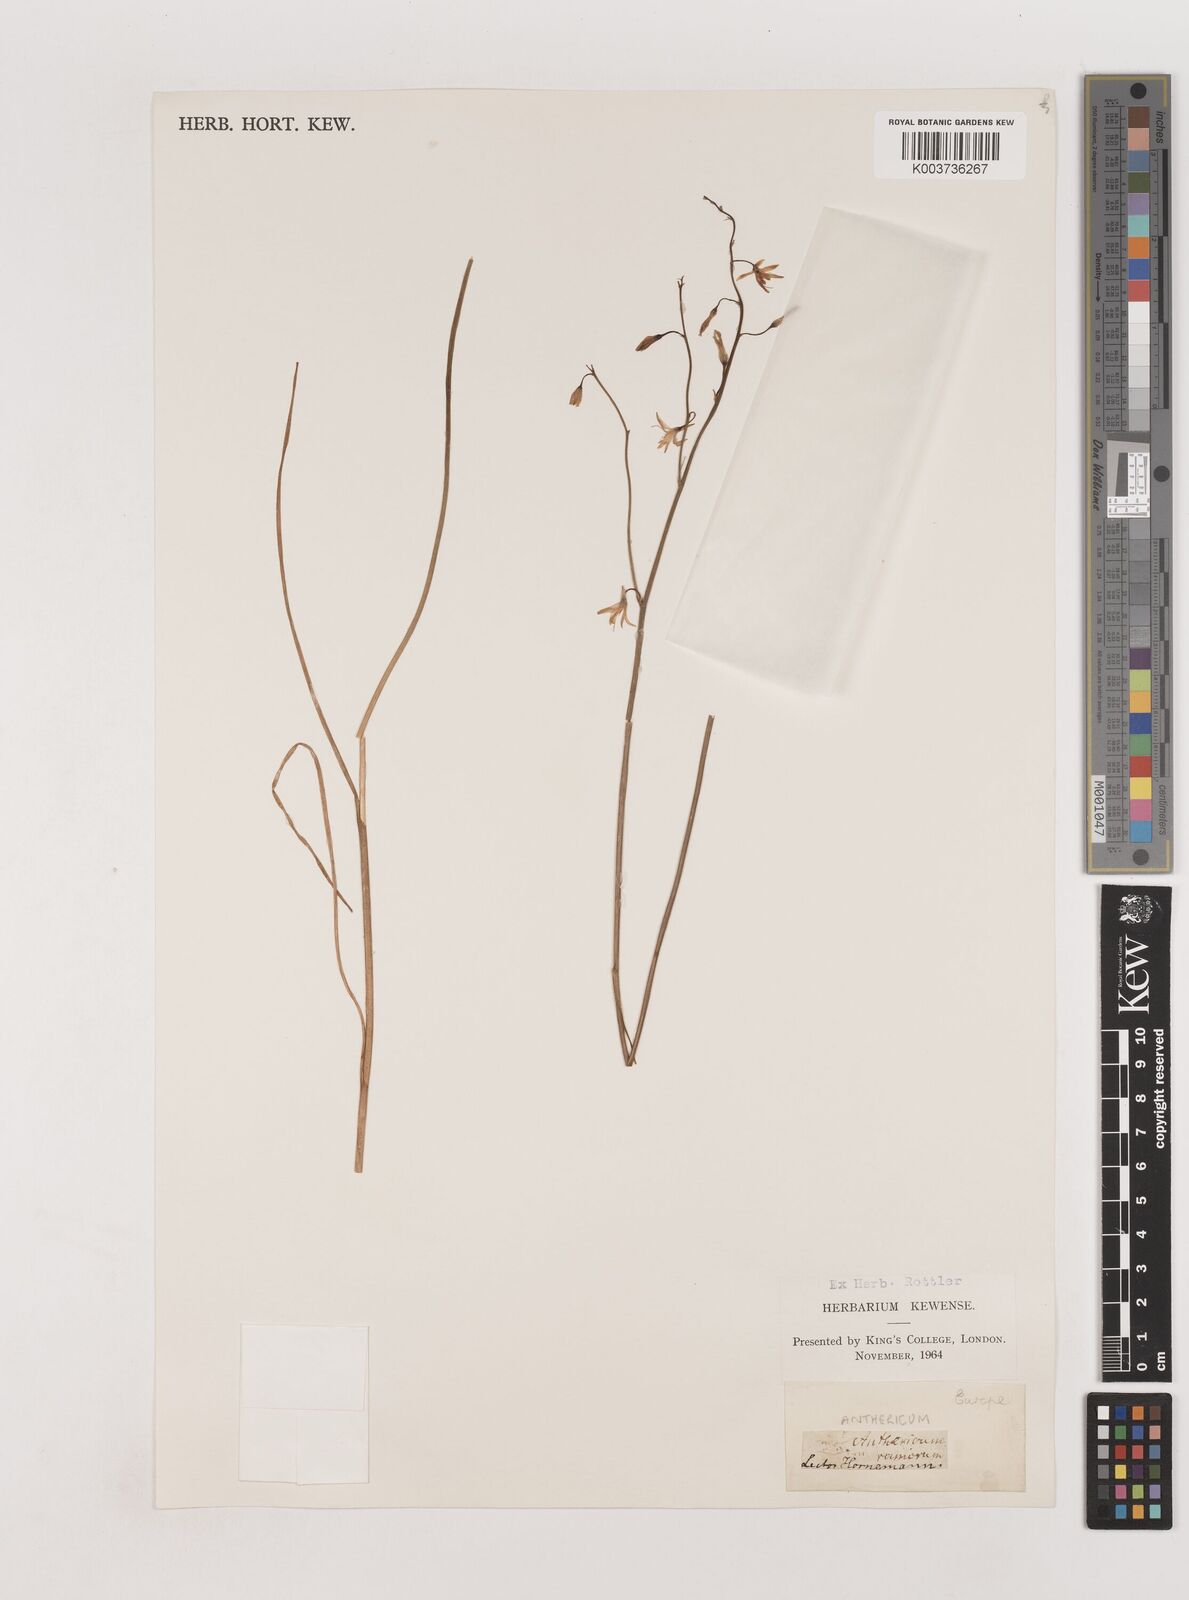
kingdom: Plantae
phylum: Tracheophyta
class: Liliopsida
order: Asparagales
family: Asparagaceae
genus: Anthericum
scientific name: Anthericum
